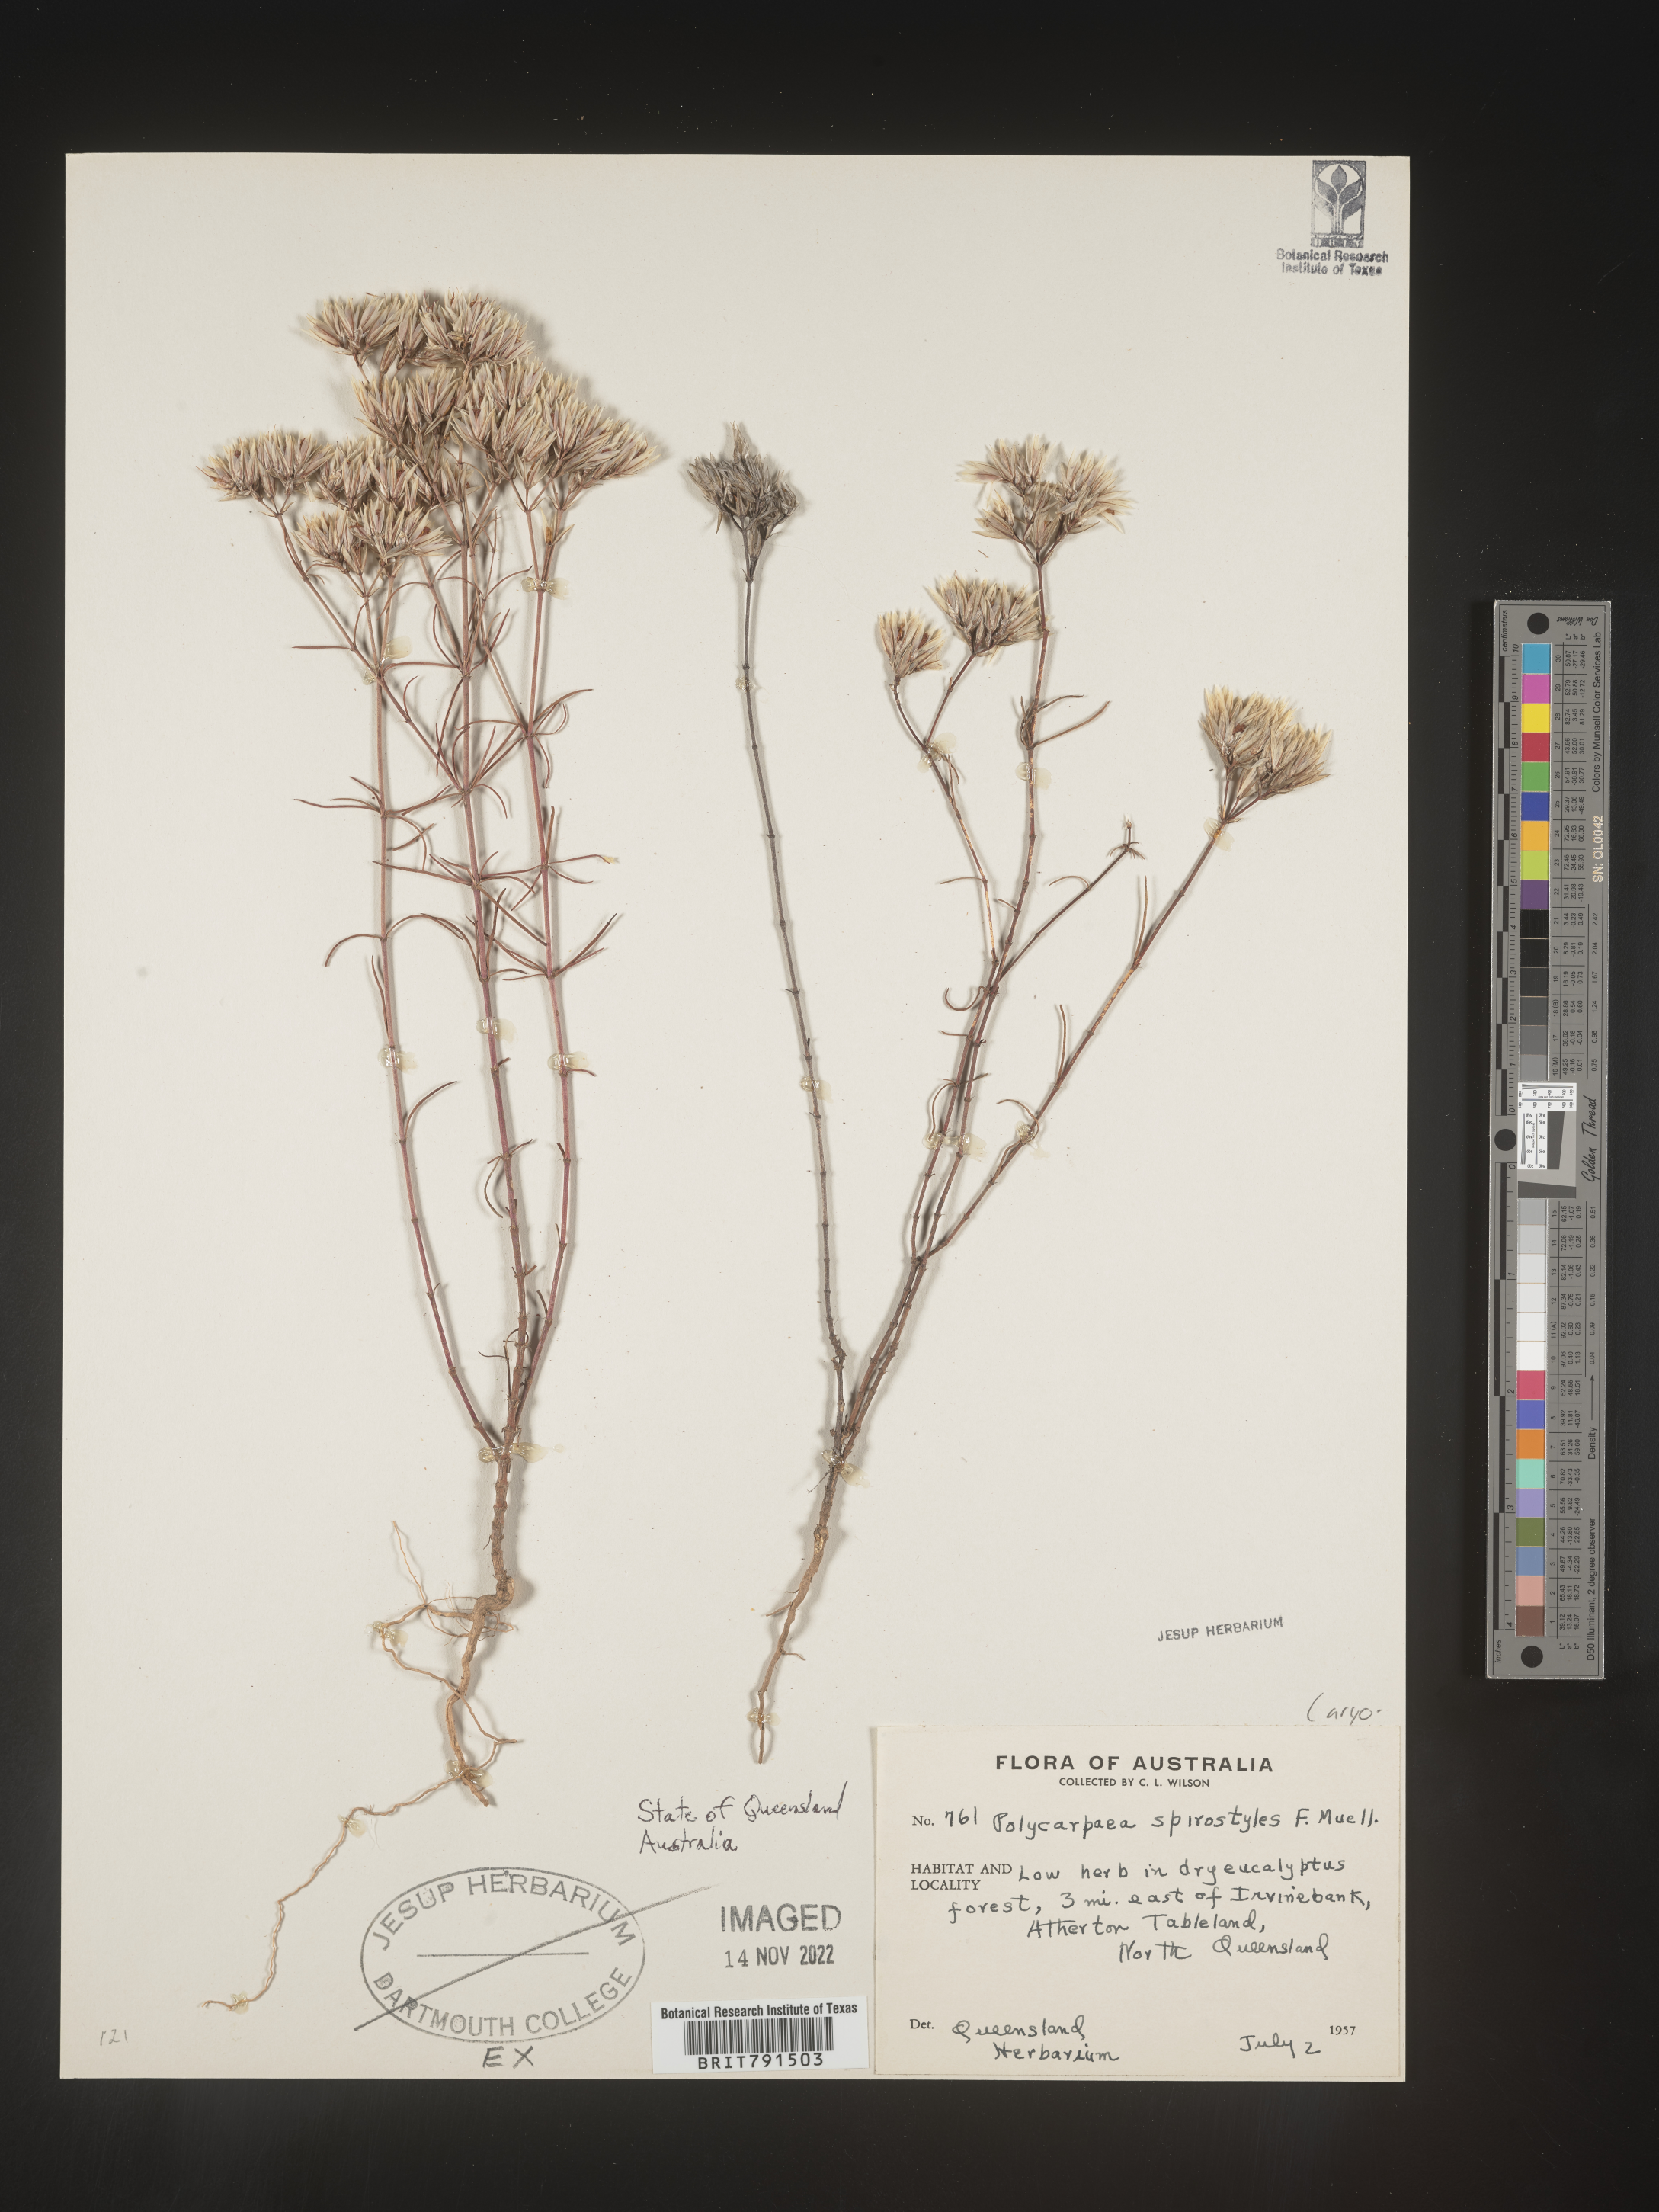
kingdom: Plantae
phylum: Tracheophyta
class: Magnoliopsida
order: Caryophyllales
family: Caryophyllaceae
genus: Polycarpaea
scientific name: Polycarpaea
